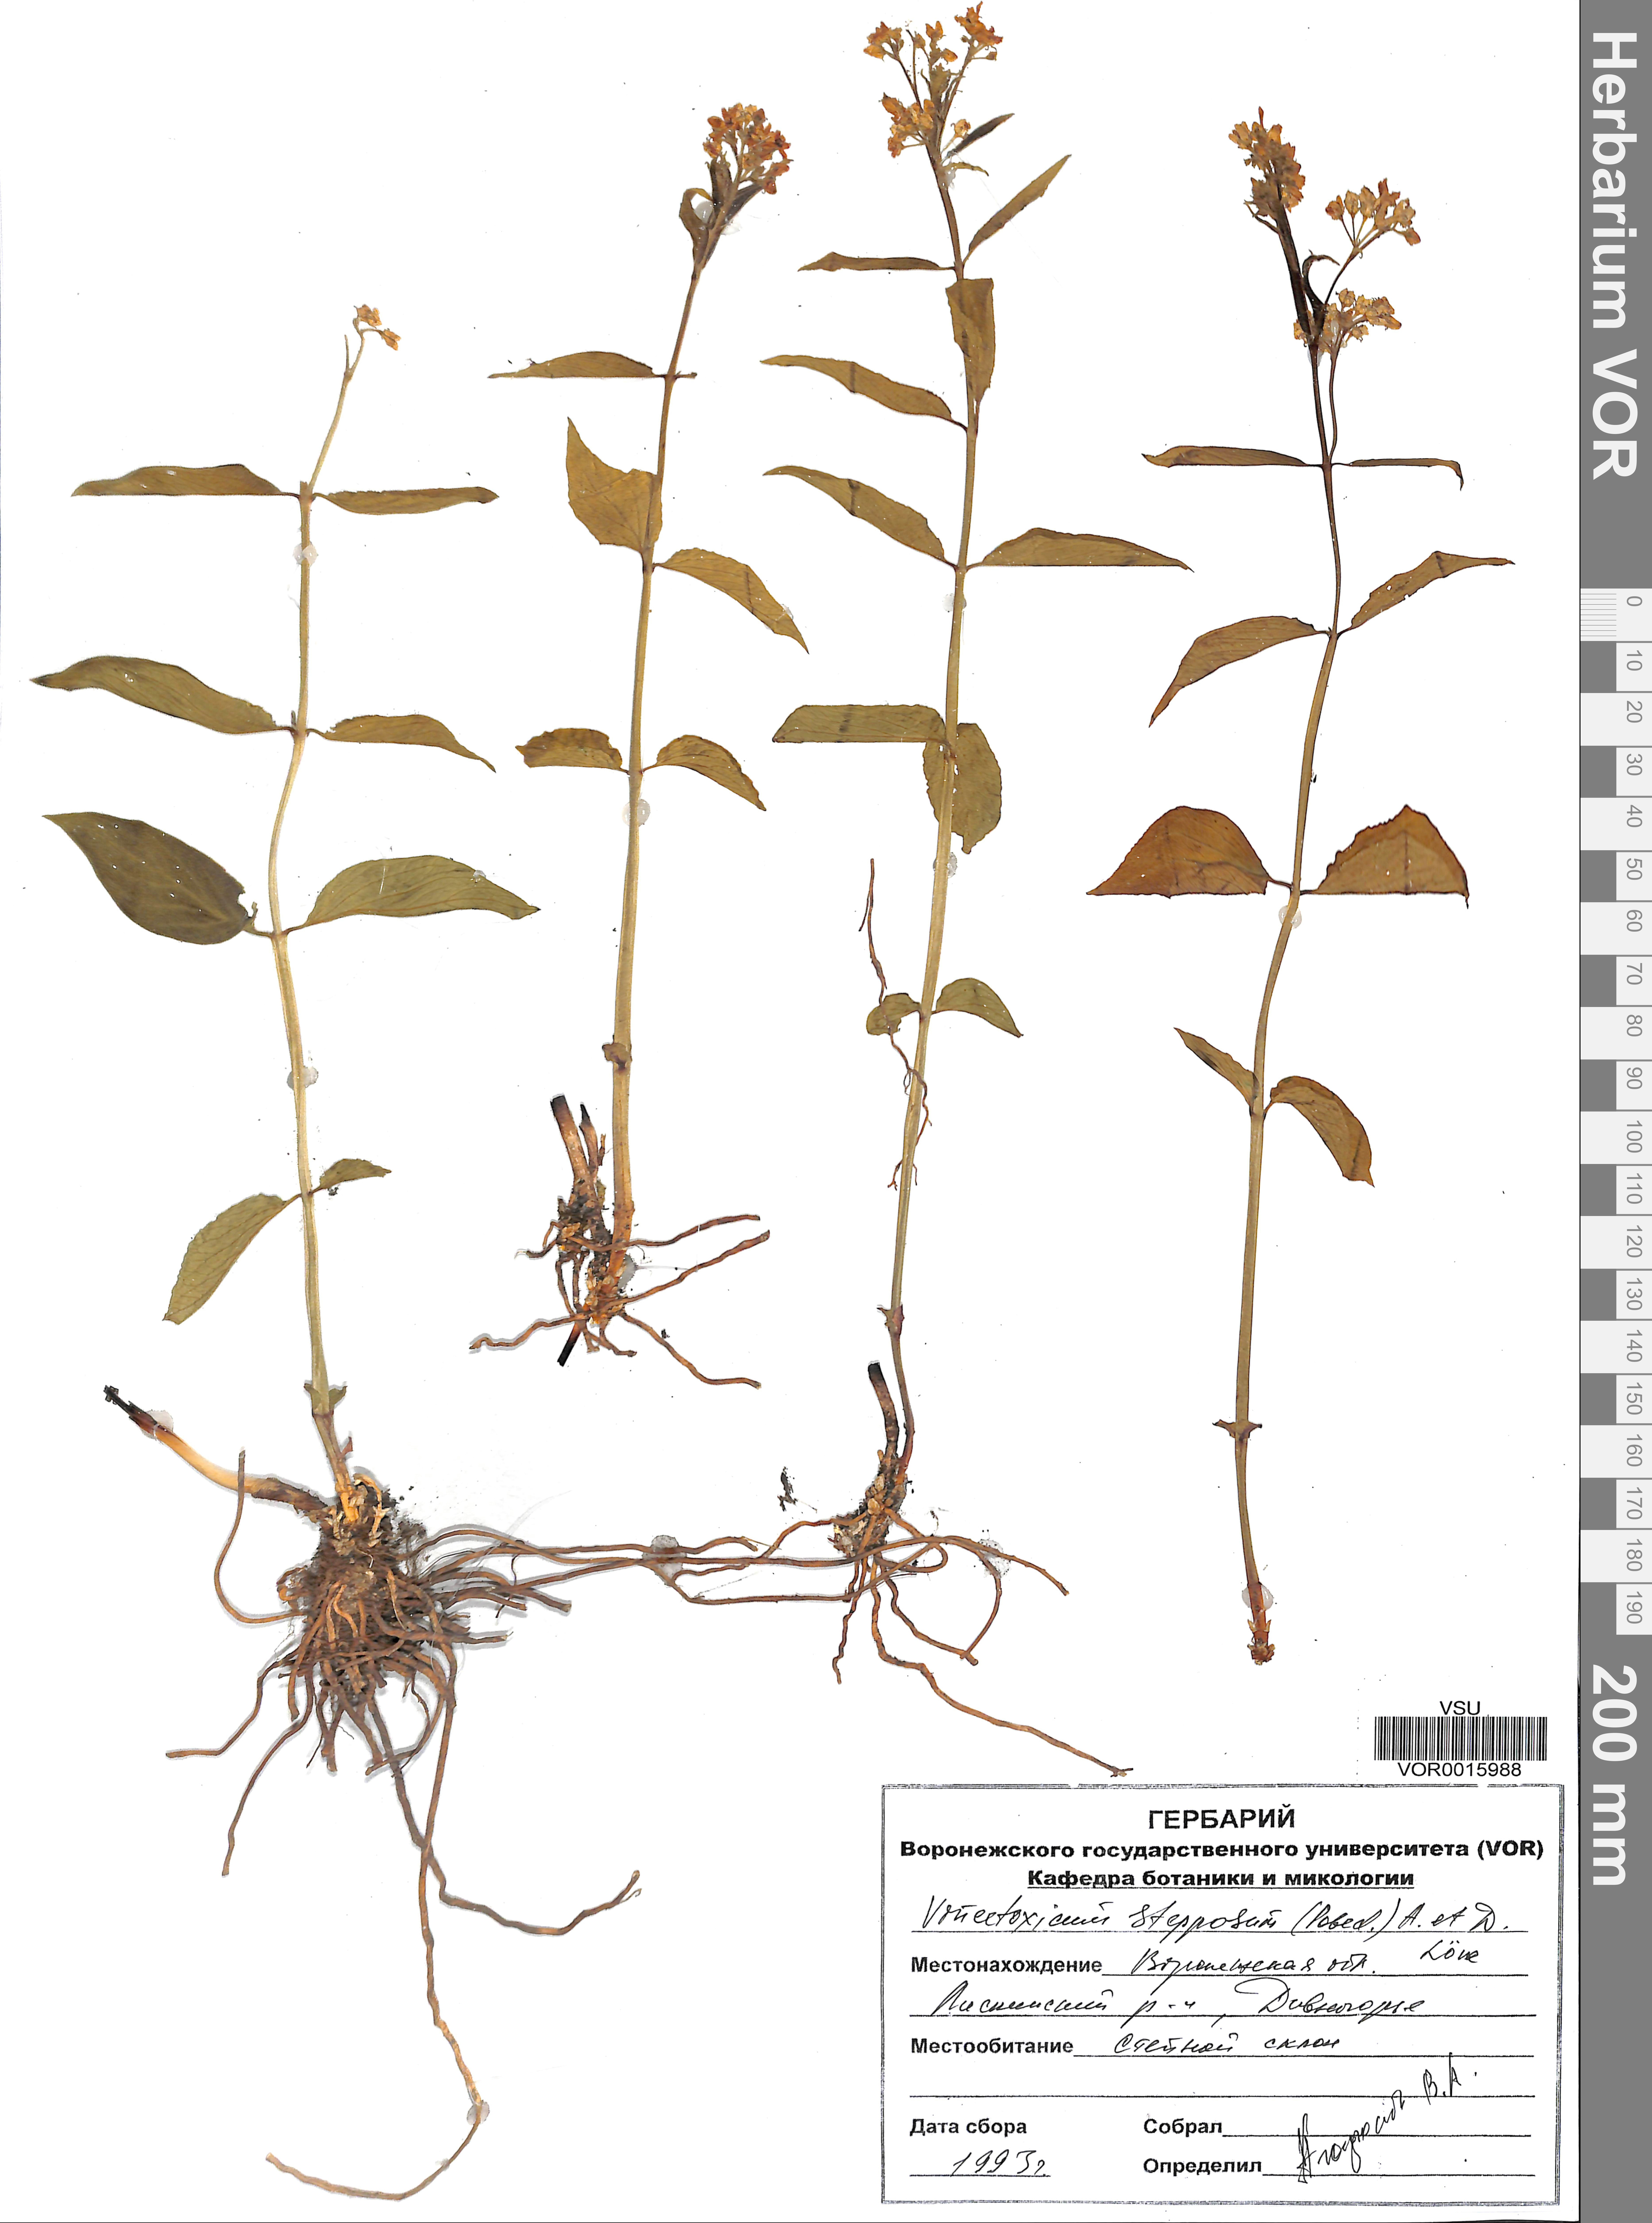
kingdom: Plantae
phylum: Tracheophyta
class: Magnoliopsida
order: Gentianales
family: Apocynaceae
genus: Vincetoxicum
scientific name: Vincetoxicum hirundinaria
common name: White swallowwort
